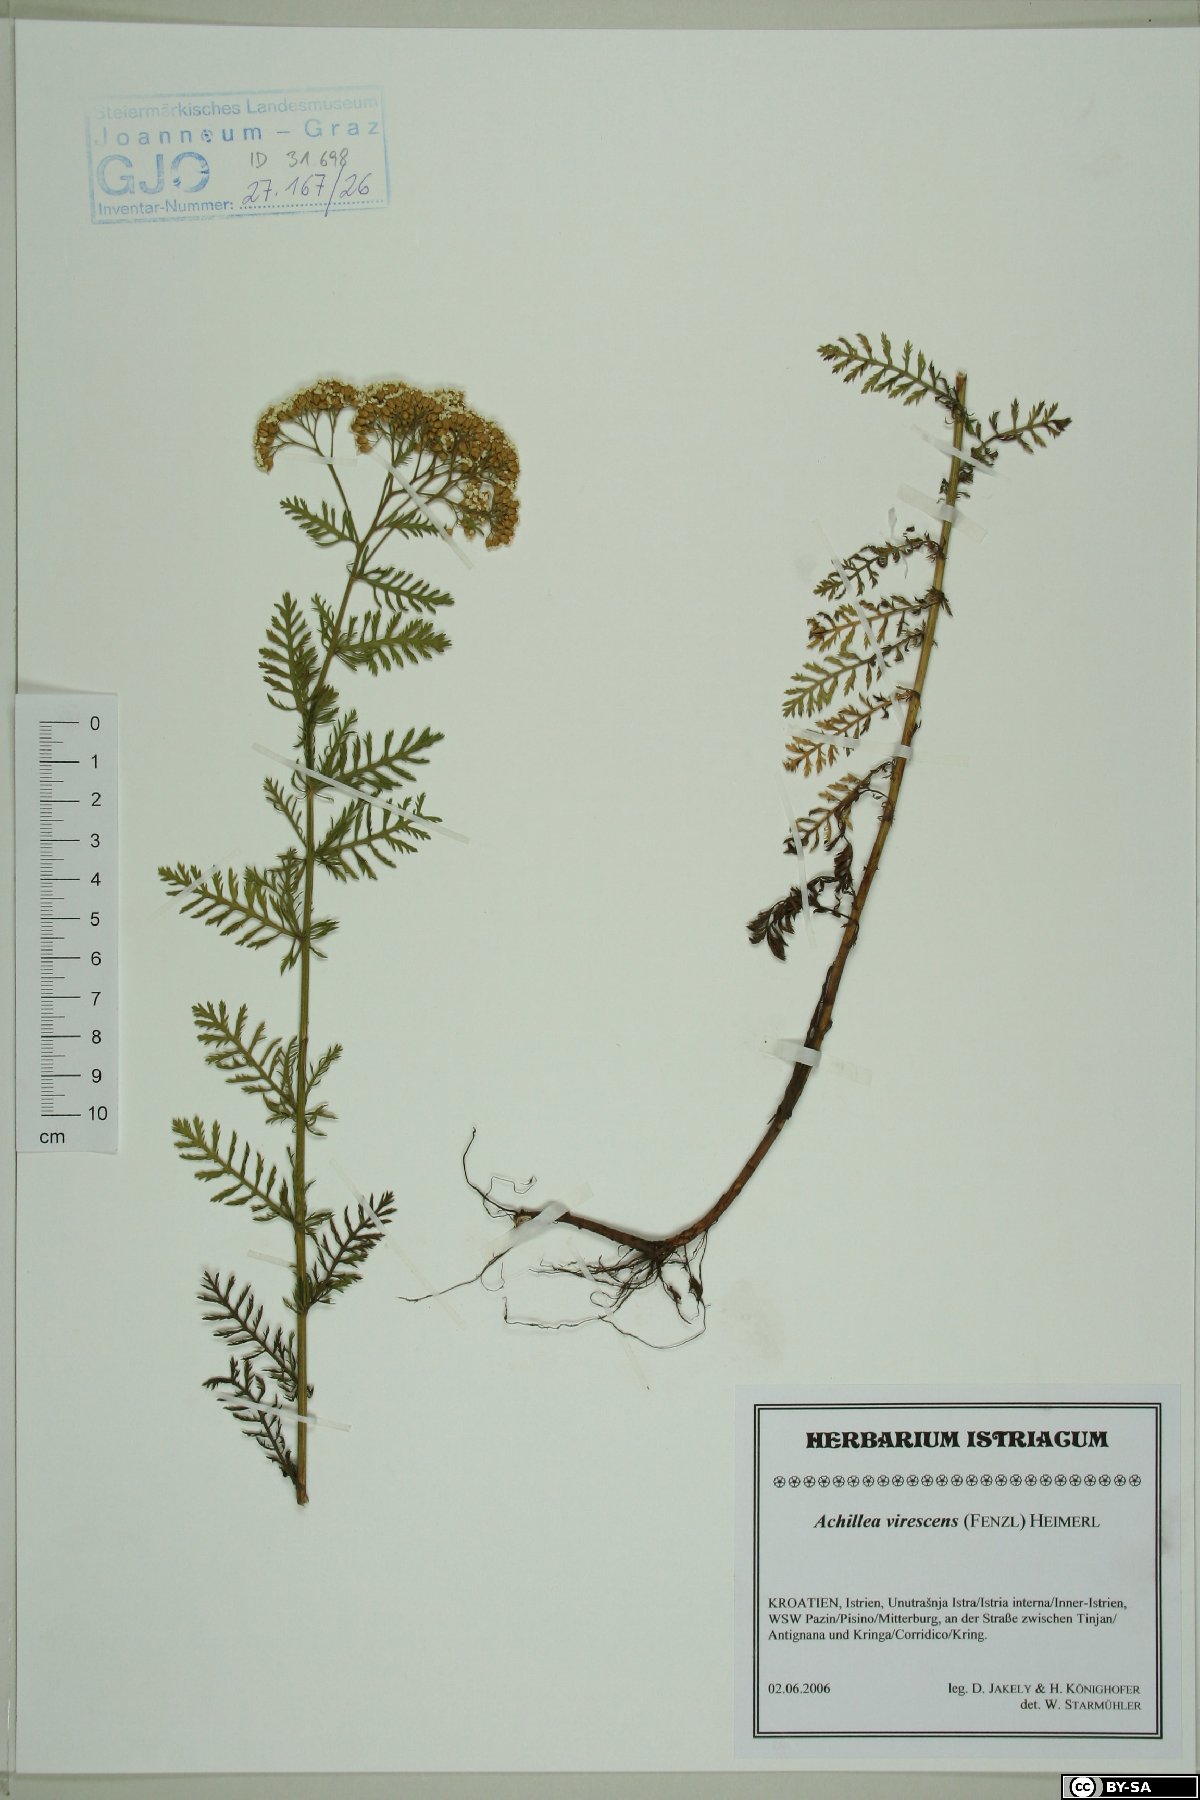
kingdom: Plantae
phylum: Tracheophyta
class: Magnoliopsida
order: Asterales
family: Asteraceae
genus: Achillea
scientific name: Achillea virescens
